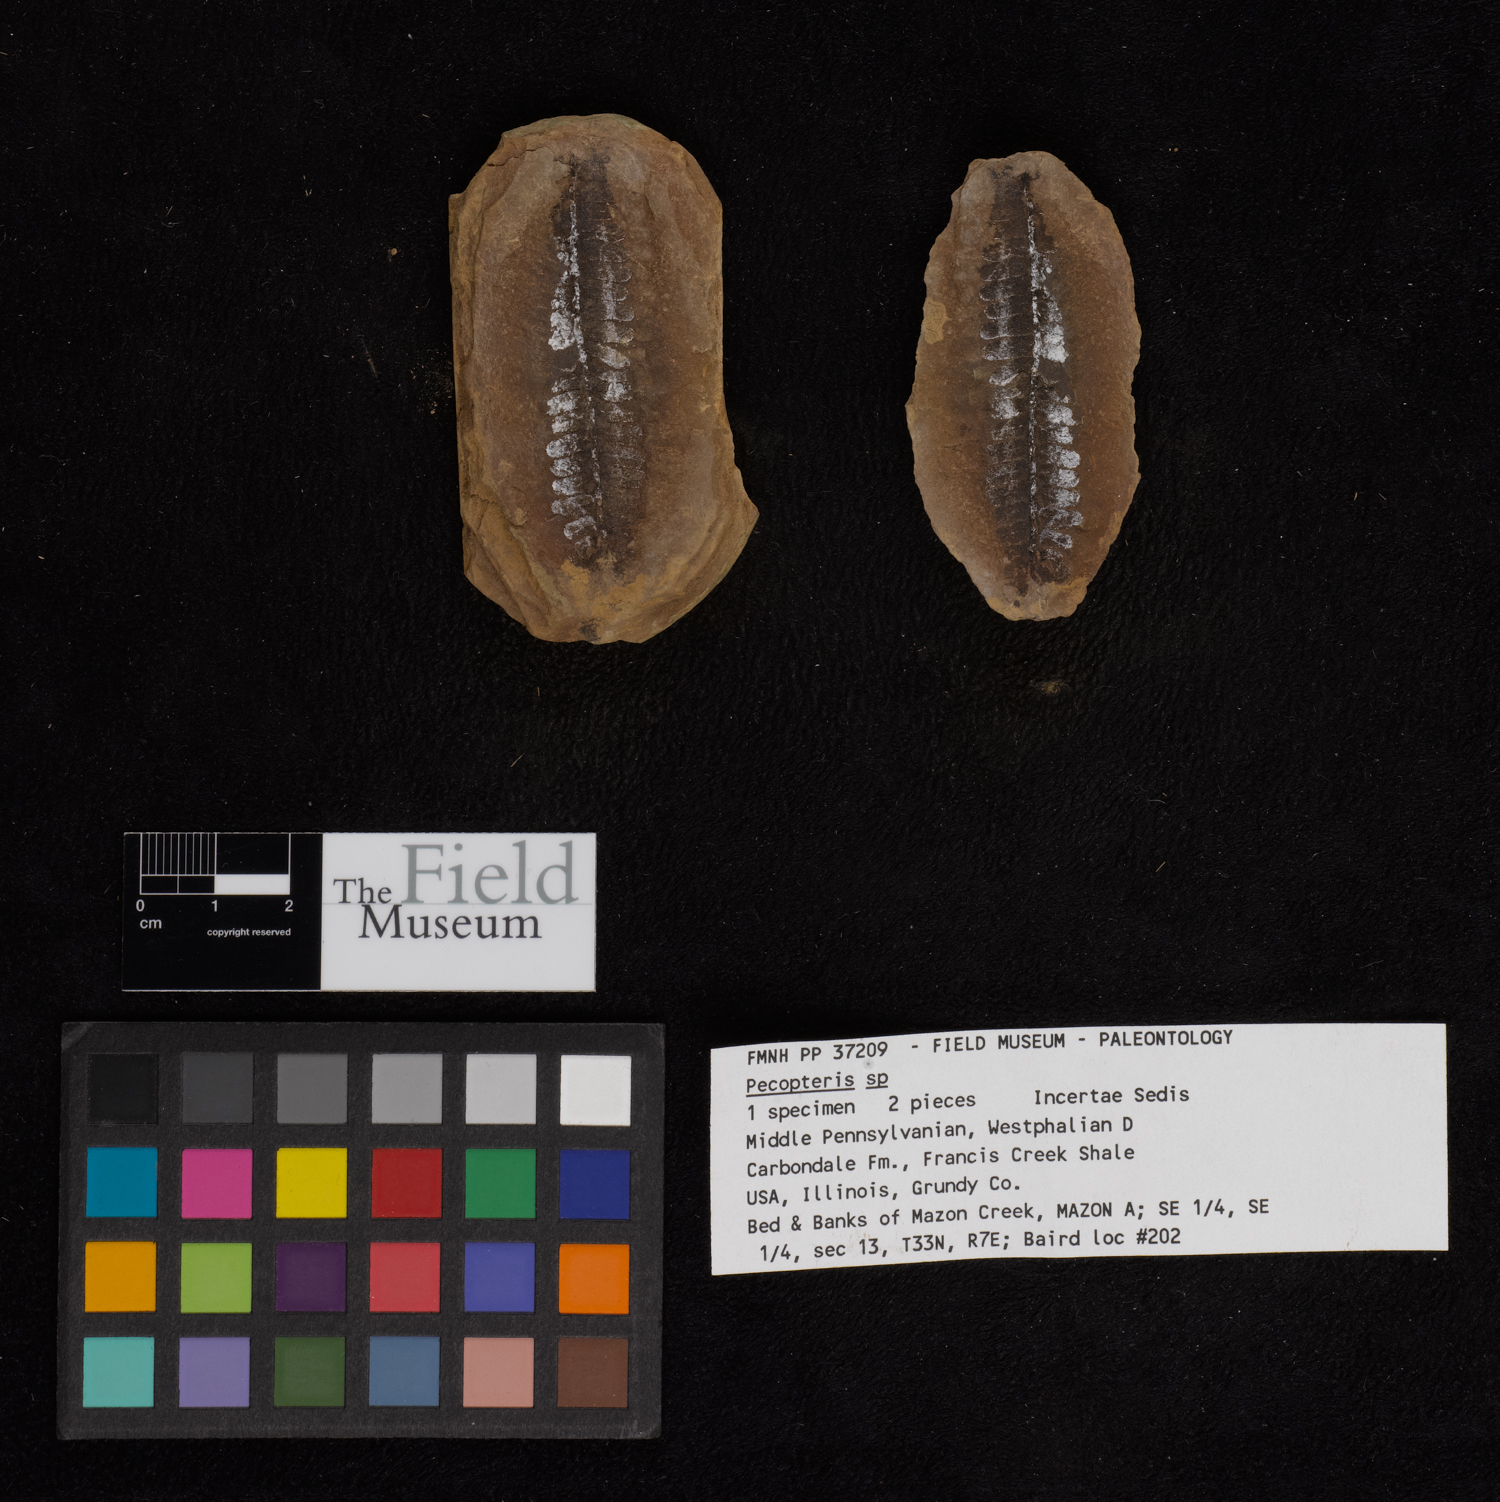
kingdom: Plantae
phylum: Tracheophyta
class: Polypodiopsida
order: Marattiales
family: Asterothecaceae
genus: Pecopteris
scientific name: Pecopteris
